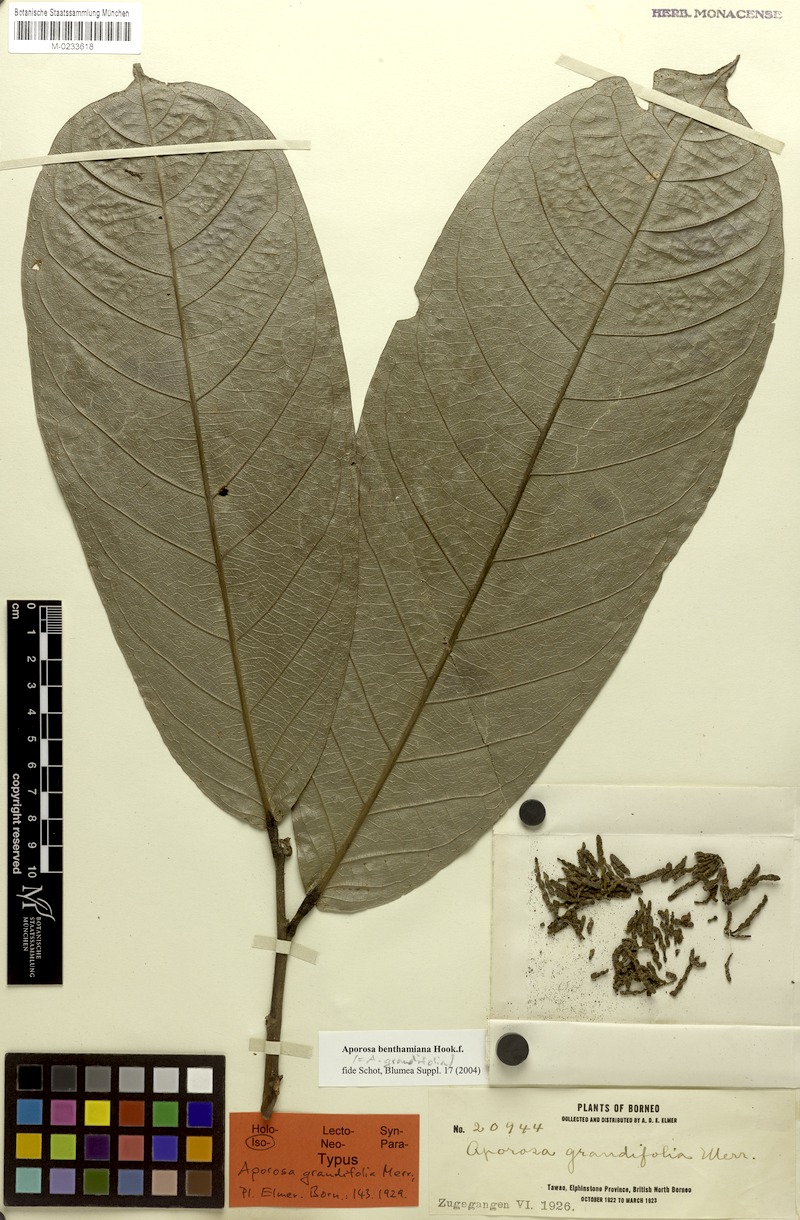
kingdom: Plantae
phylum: Tracheophyta
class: Magnoliopsida
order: Malpighiales
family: Phyllanthaceae
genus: Aporosa
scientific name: Aporosa benthamiana
